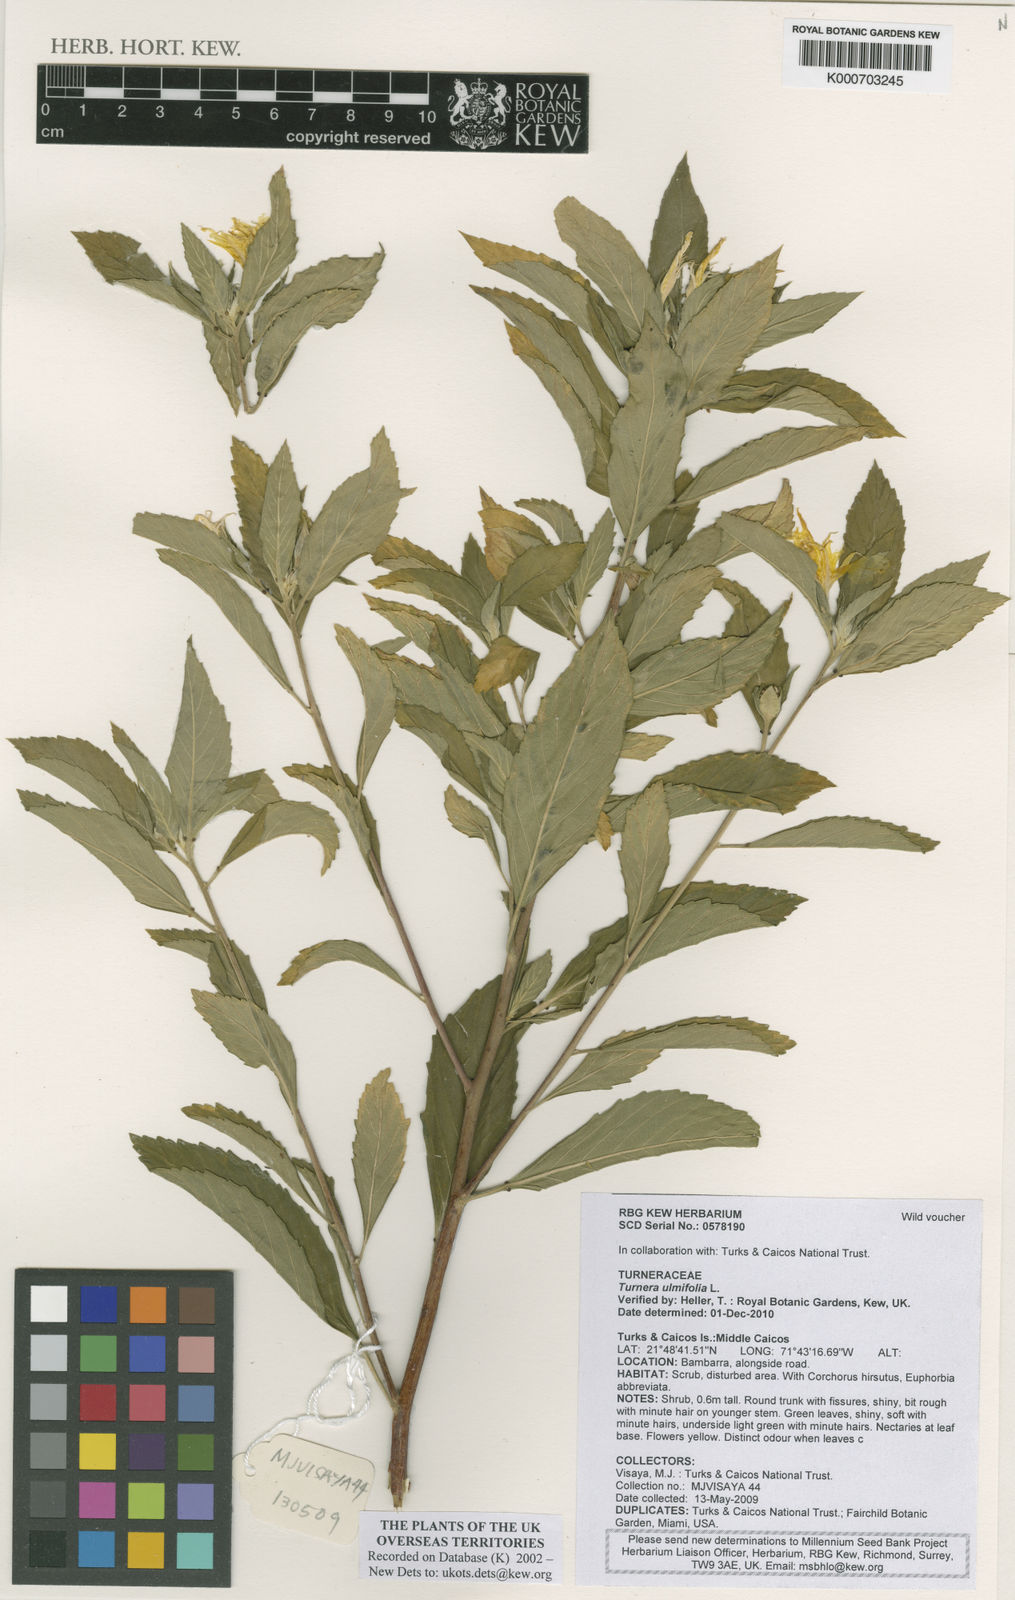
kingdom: Plantae
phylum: Tracheophyta
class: Magnoliopsida
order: Malpighiales
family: Turneraceae
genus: Turnera
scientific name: Turnera ulmifolia
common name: Ramgoat dashalong
